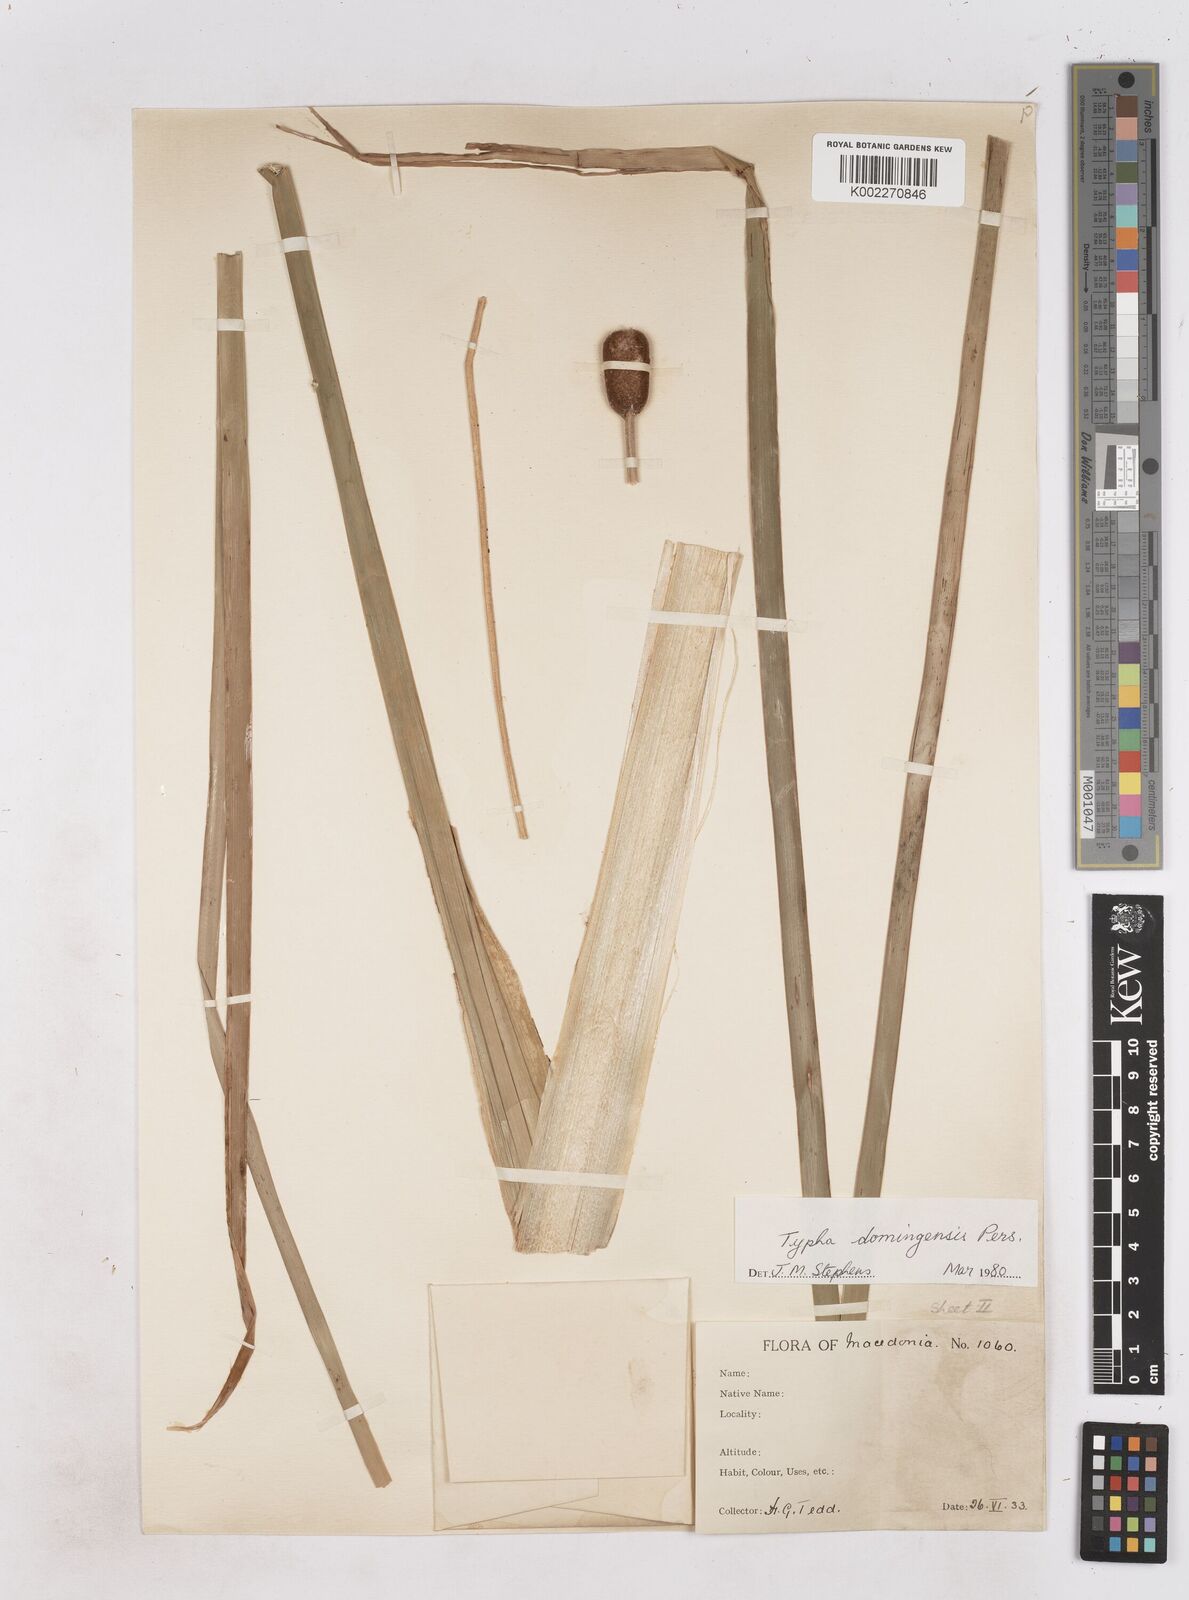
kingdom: Plantae
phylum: Tracheophyta
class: Liliopsida
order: Poales
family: Typhaceae
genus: Typha
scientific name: Typha angustifolia
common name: Lesser bulrush
